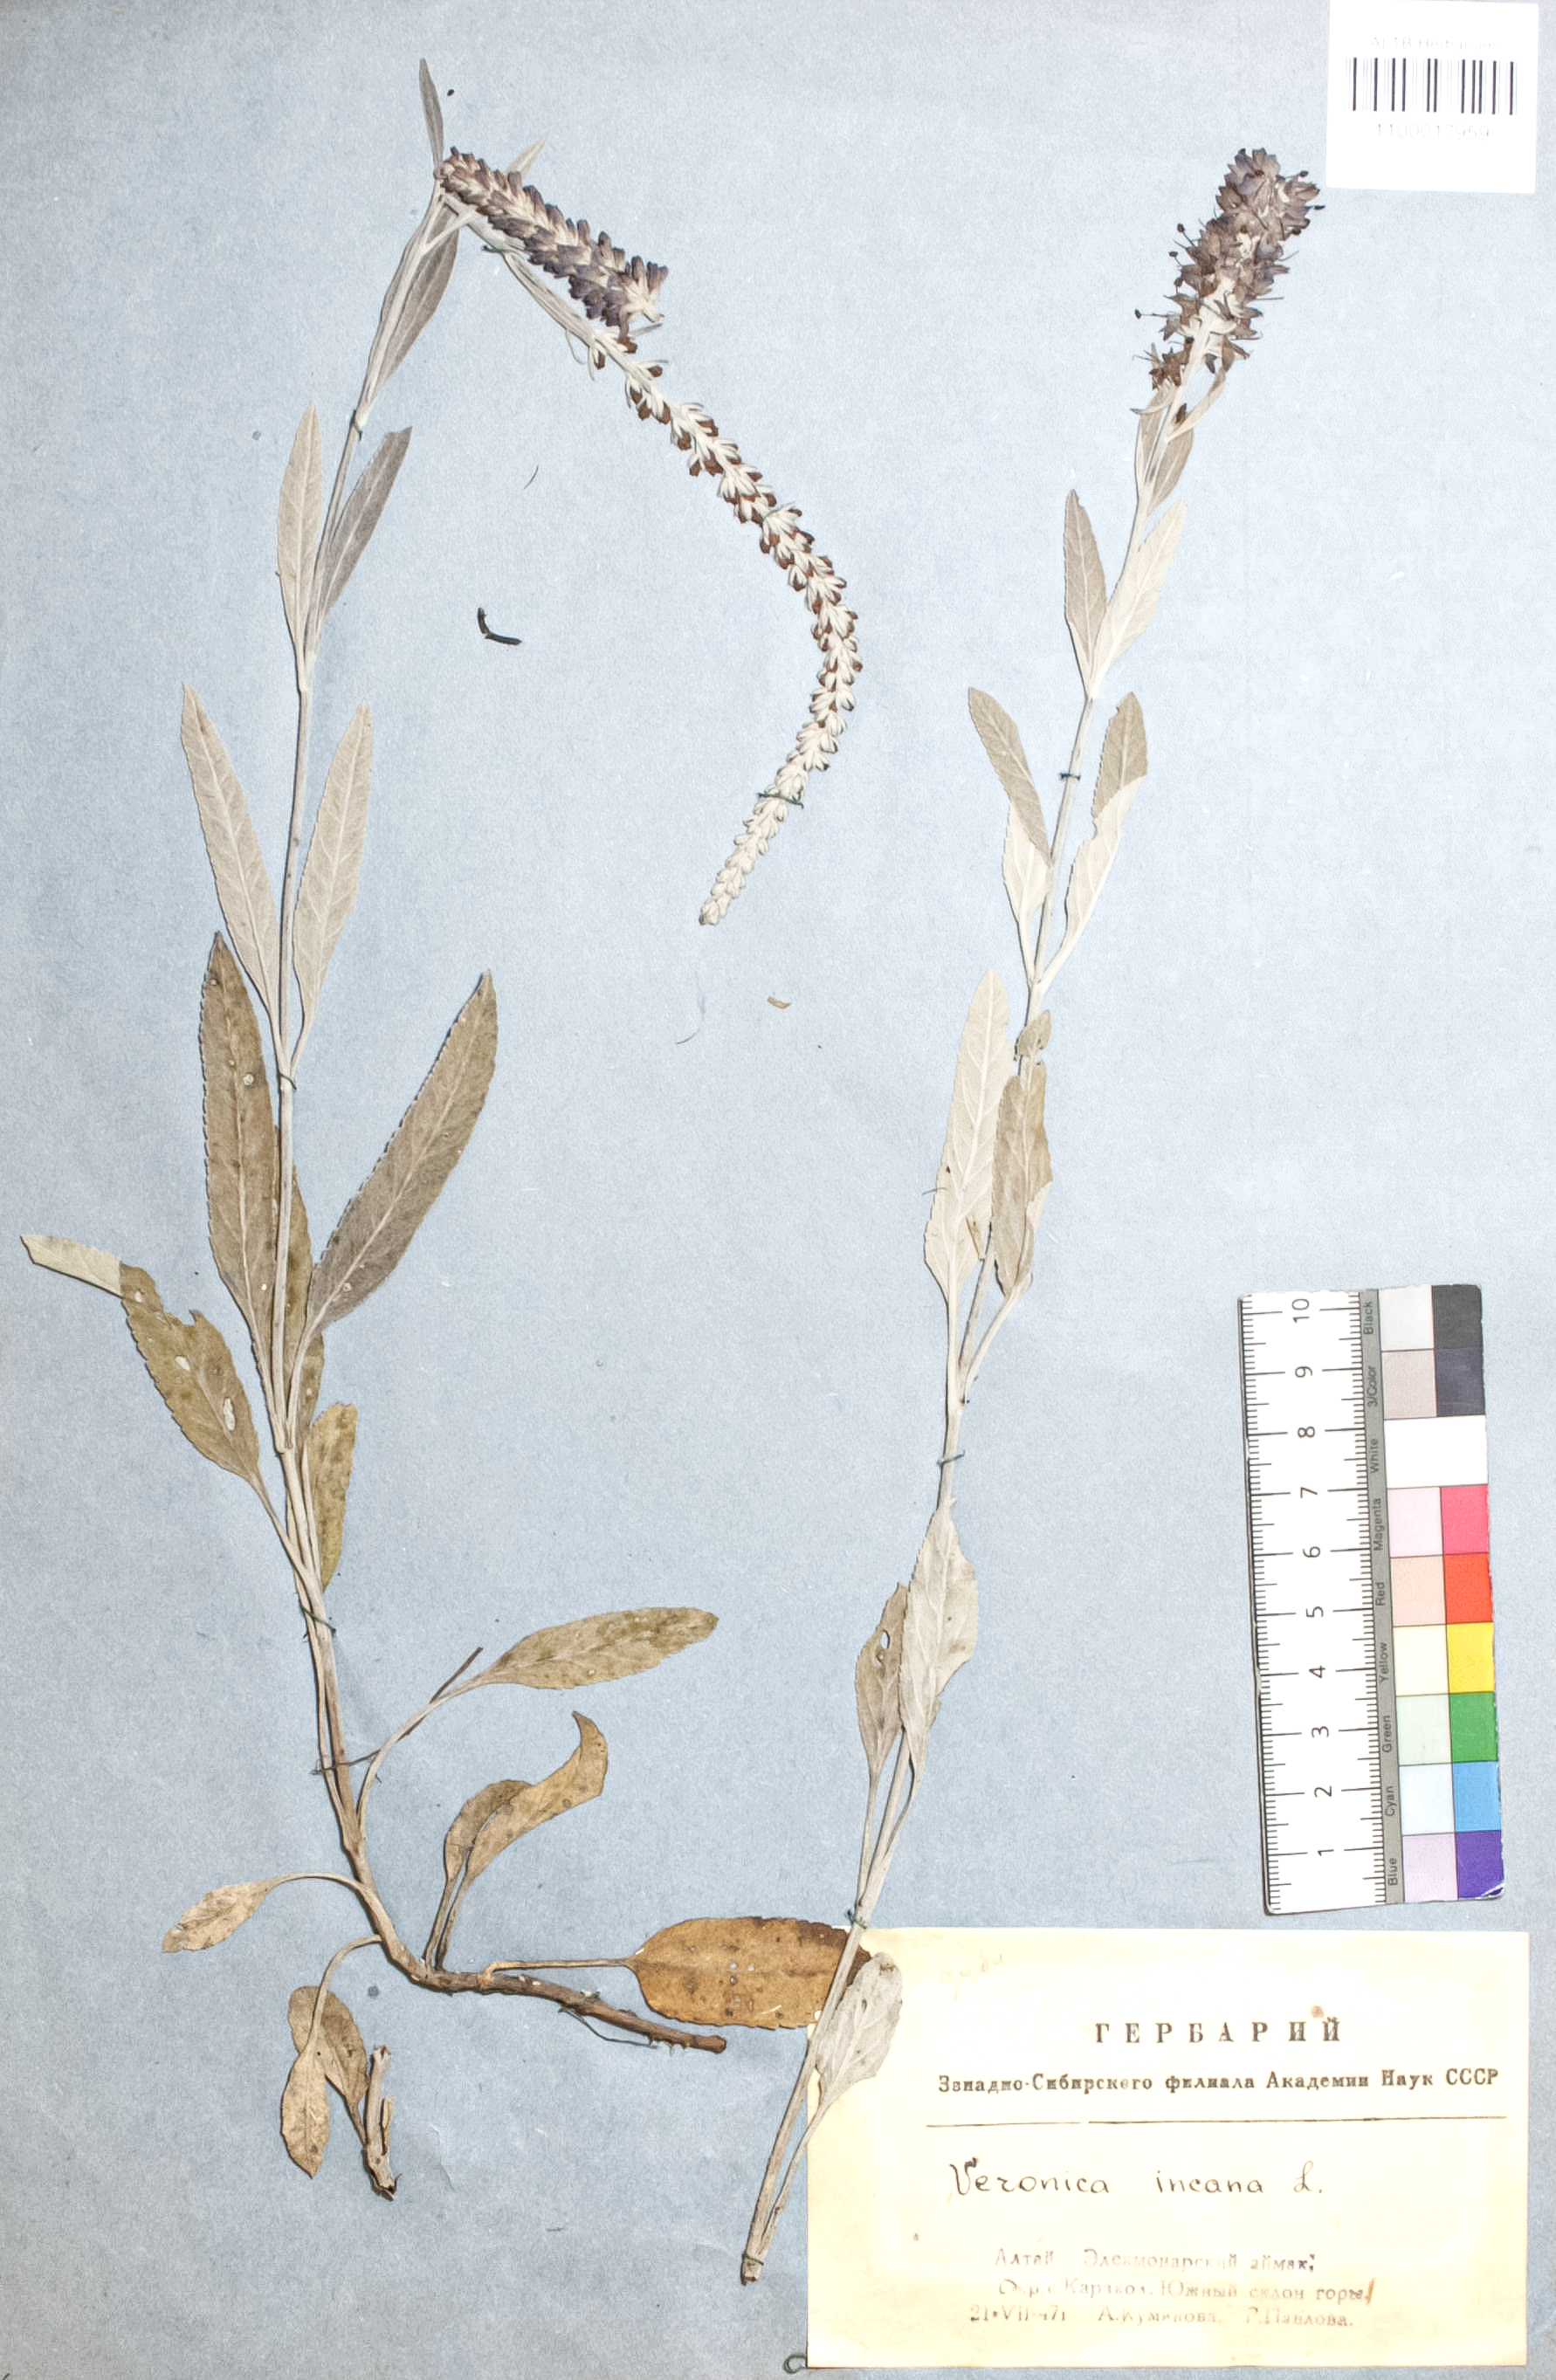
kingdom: Plantae
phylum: Tracheophyta
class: Magnoliopsida
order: Lamiales
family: Plantaginaceae
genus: Veronica
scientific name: Veronica incana
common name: Silver speedwell
